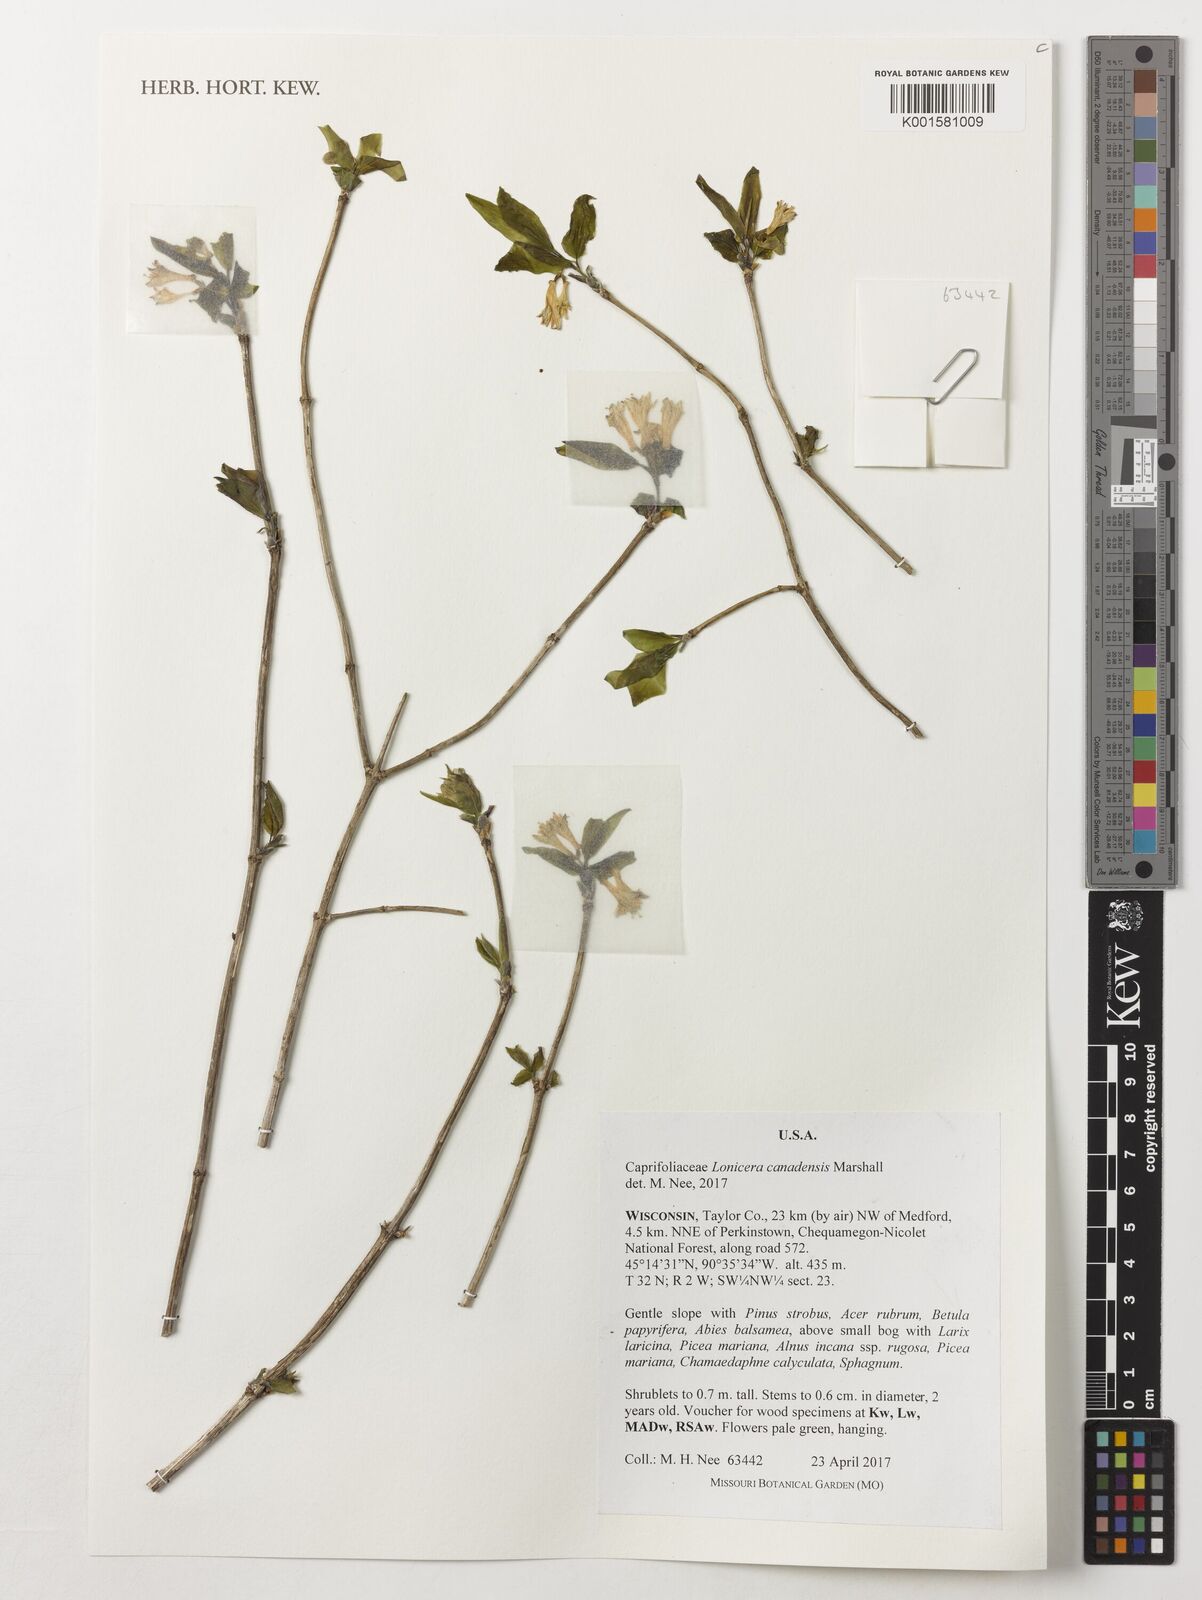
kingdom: Plantae
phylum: Tracheophyta
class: Magnoliopsida
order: Dipsacales
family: Caprifoliaceae
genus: Lonicera
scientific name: Lonicera canadensis
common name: American fly-honeysuckle
